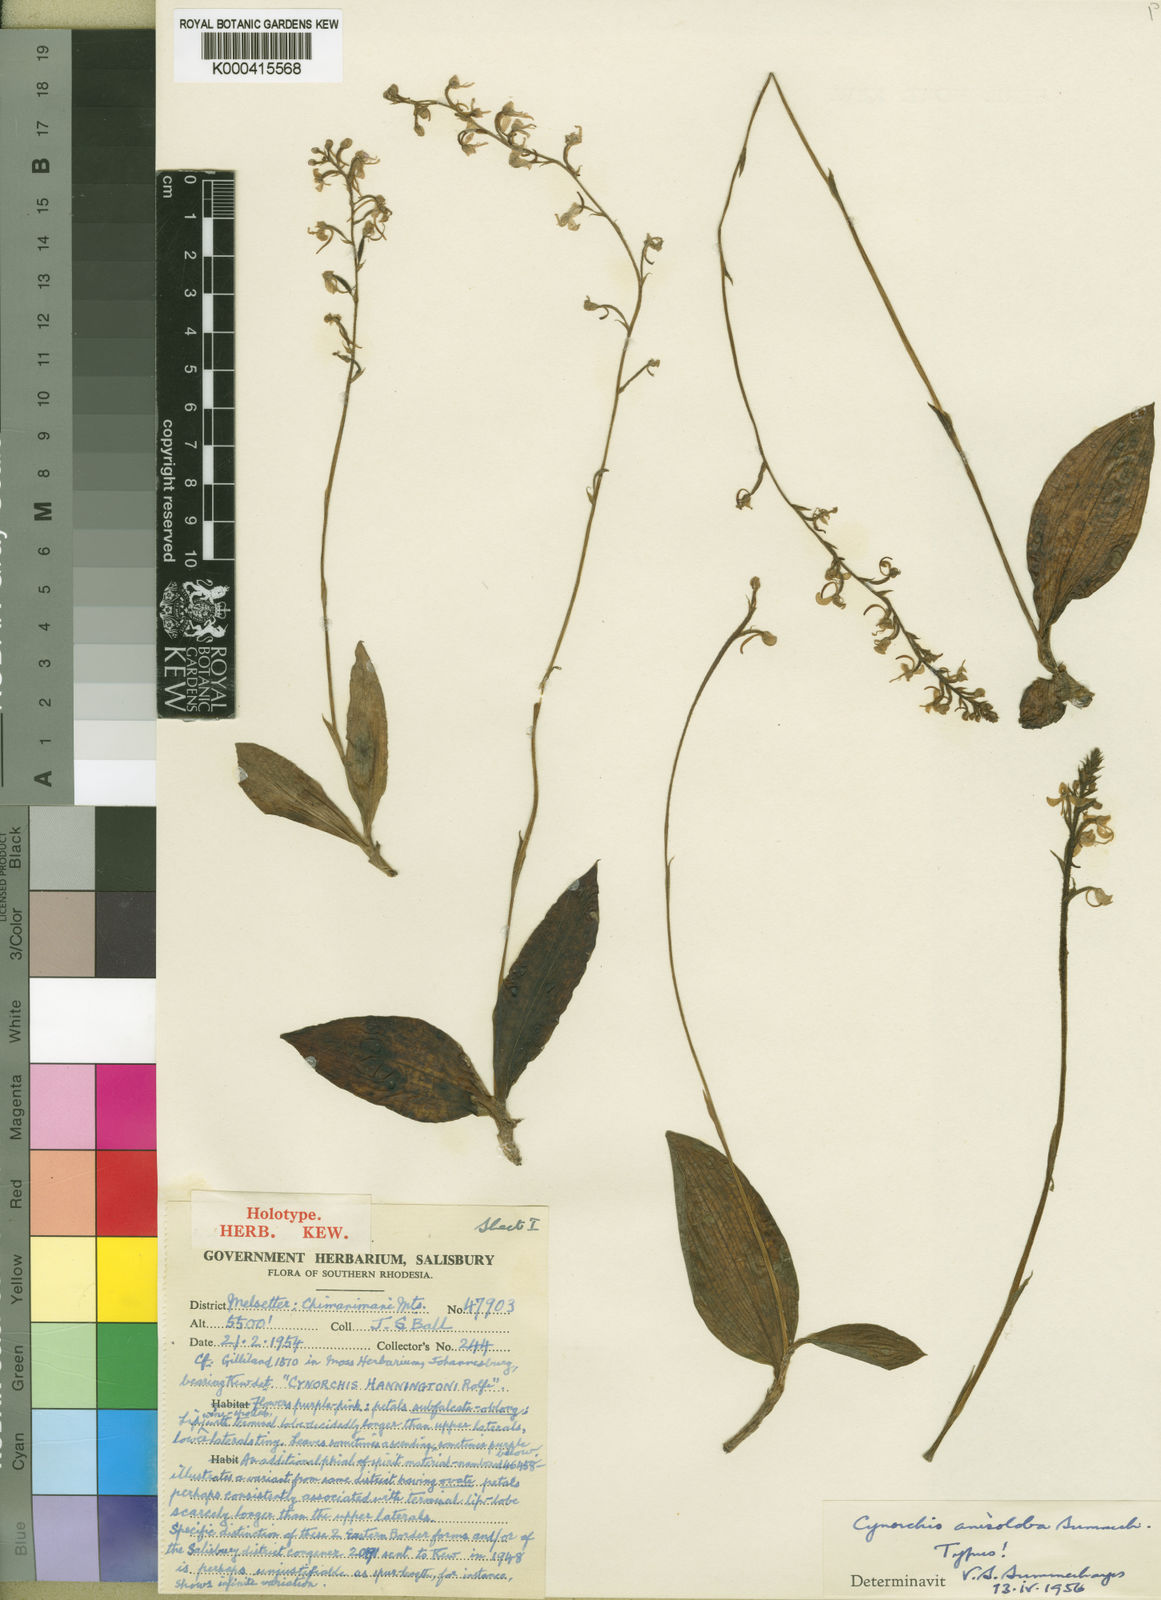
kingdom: Plantae
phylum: Tracheophyta
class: Liliopsida
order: Asparagales
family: Orchidaceae
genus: Cynorkis
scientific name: Cynorkis anisoloba
